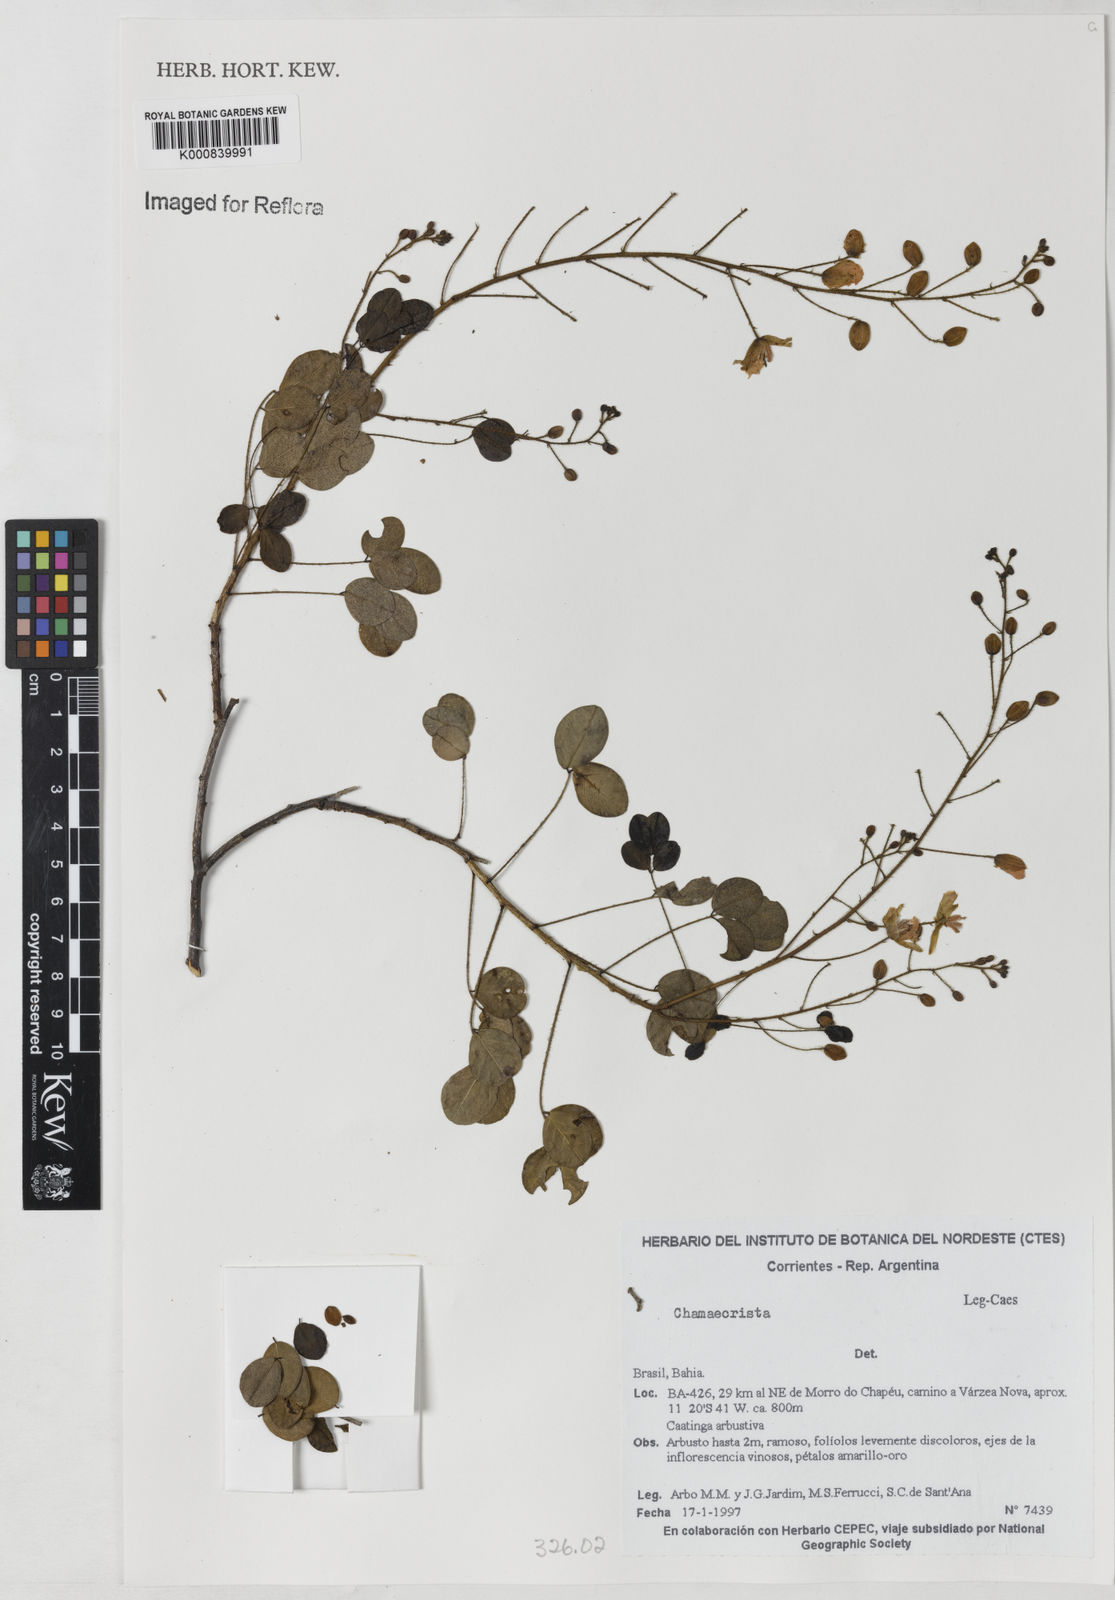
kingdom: Plantae
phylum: Tracheophyta
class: Magnoliopsida
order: Fabales
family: Fabaceae
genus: Chamaecrista
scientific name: Chamaecrista
